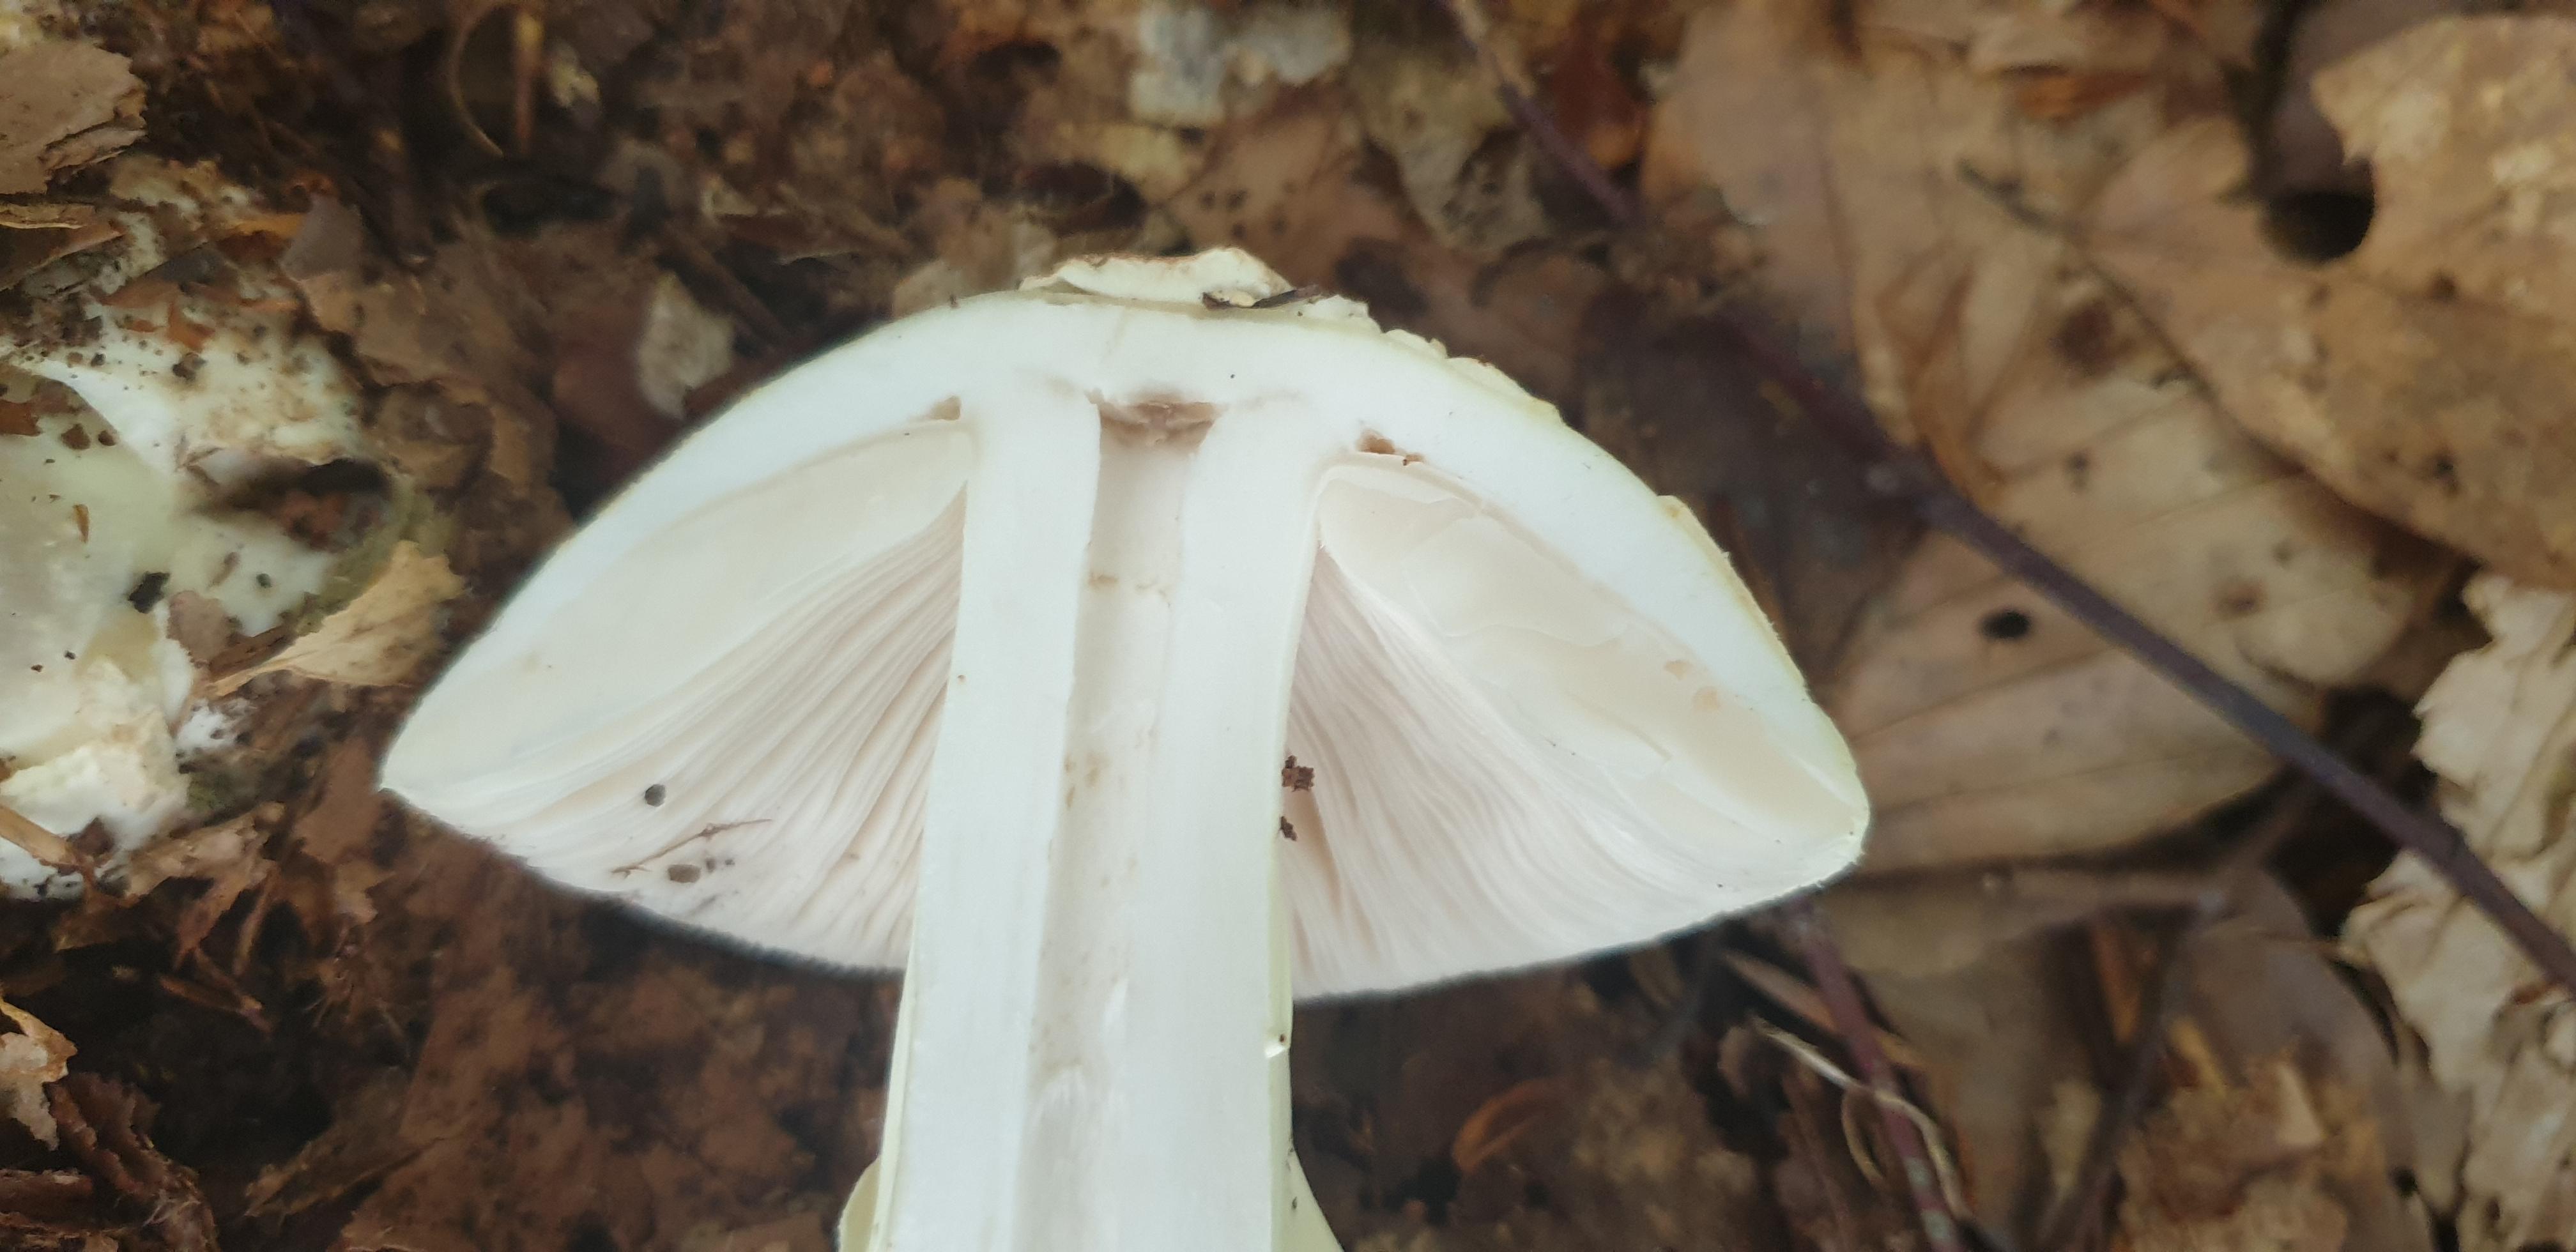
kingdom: Fungi
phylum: Basidiomycota
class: Agaricomycetes
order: Agaricales
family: Amanitaceae
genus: Amanita
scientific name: Amanita citrina
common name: kugleknoldet fluesvamp
